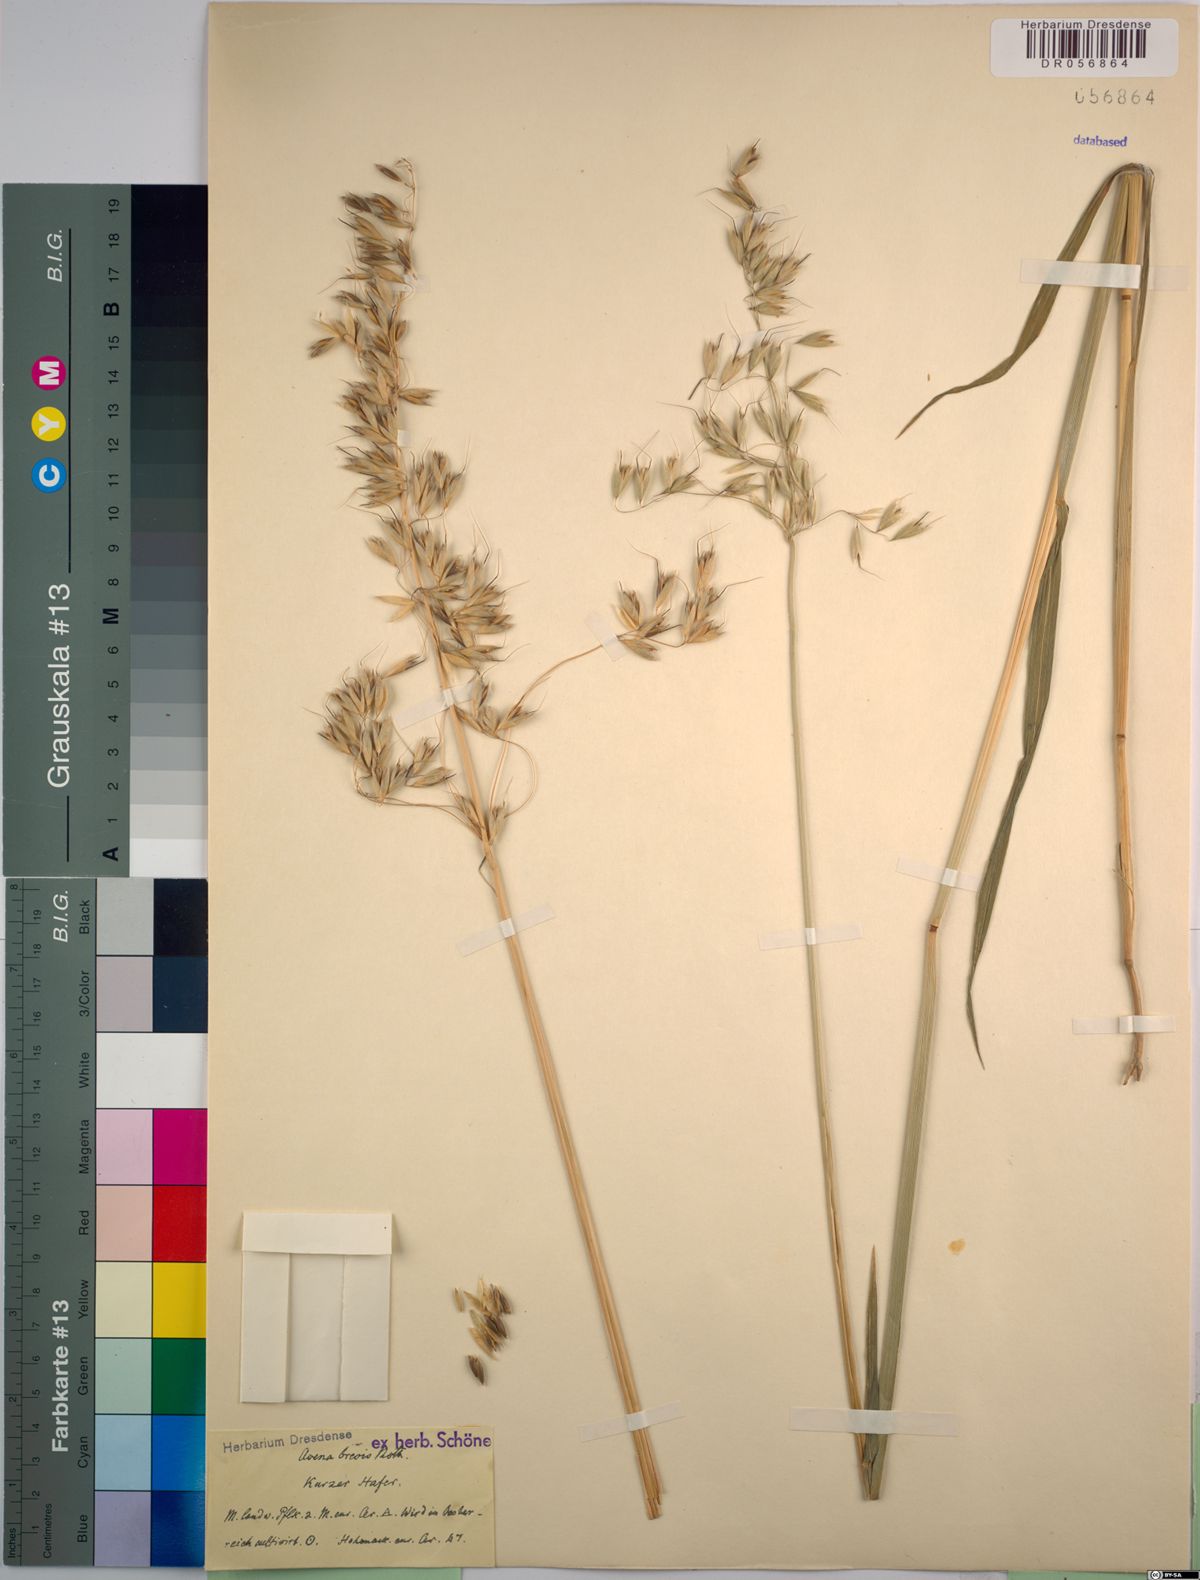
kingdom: Plantae
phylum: Tracheophyta
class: Liliopsida
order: Poales
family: Poaceae
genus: Avena
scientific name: Avena brevis
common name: Short oat
